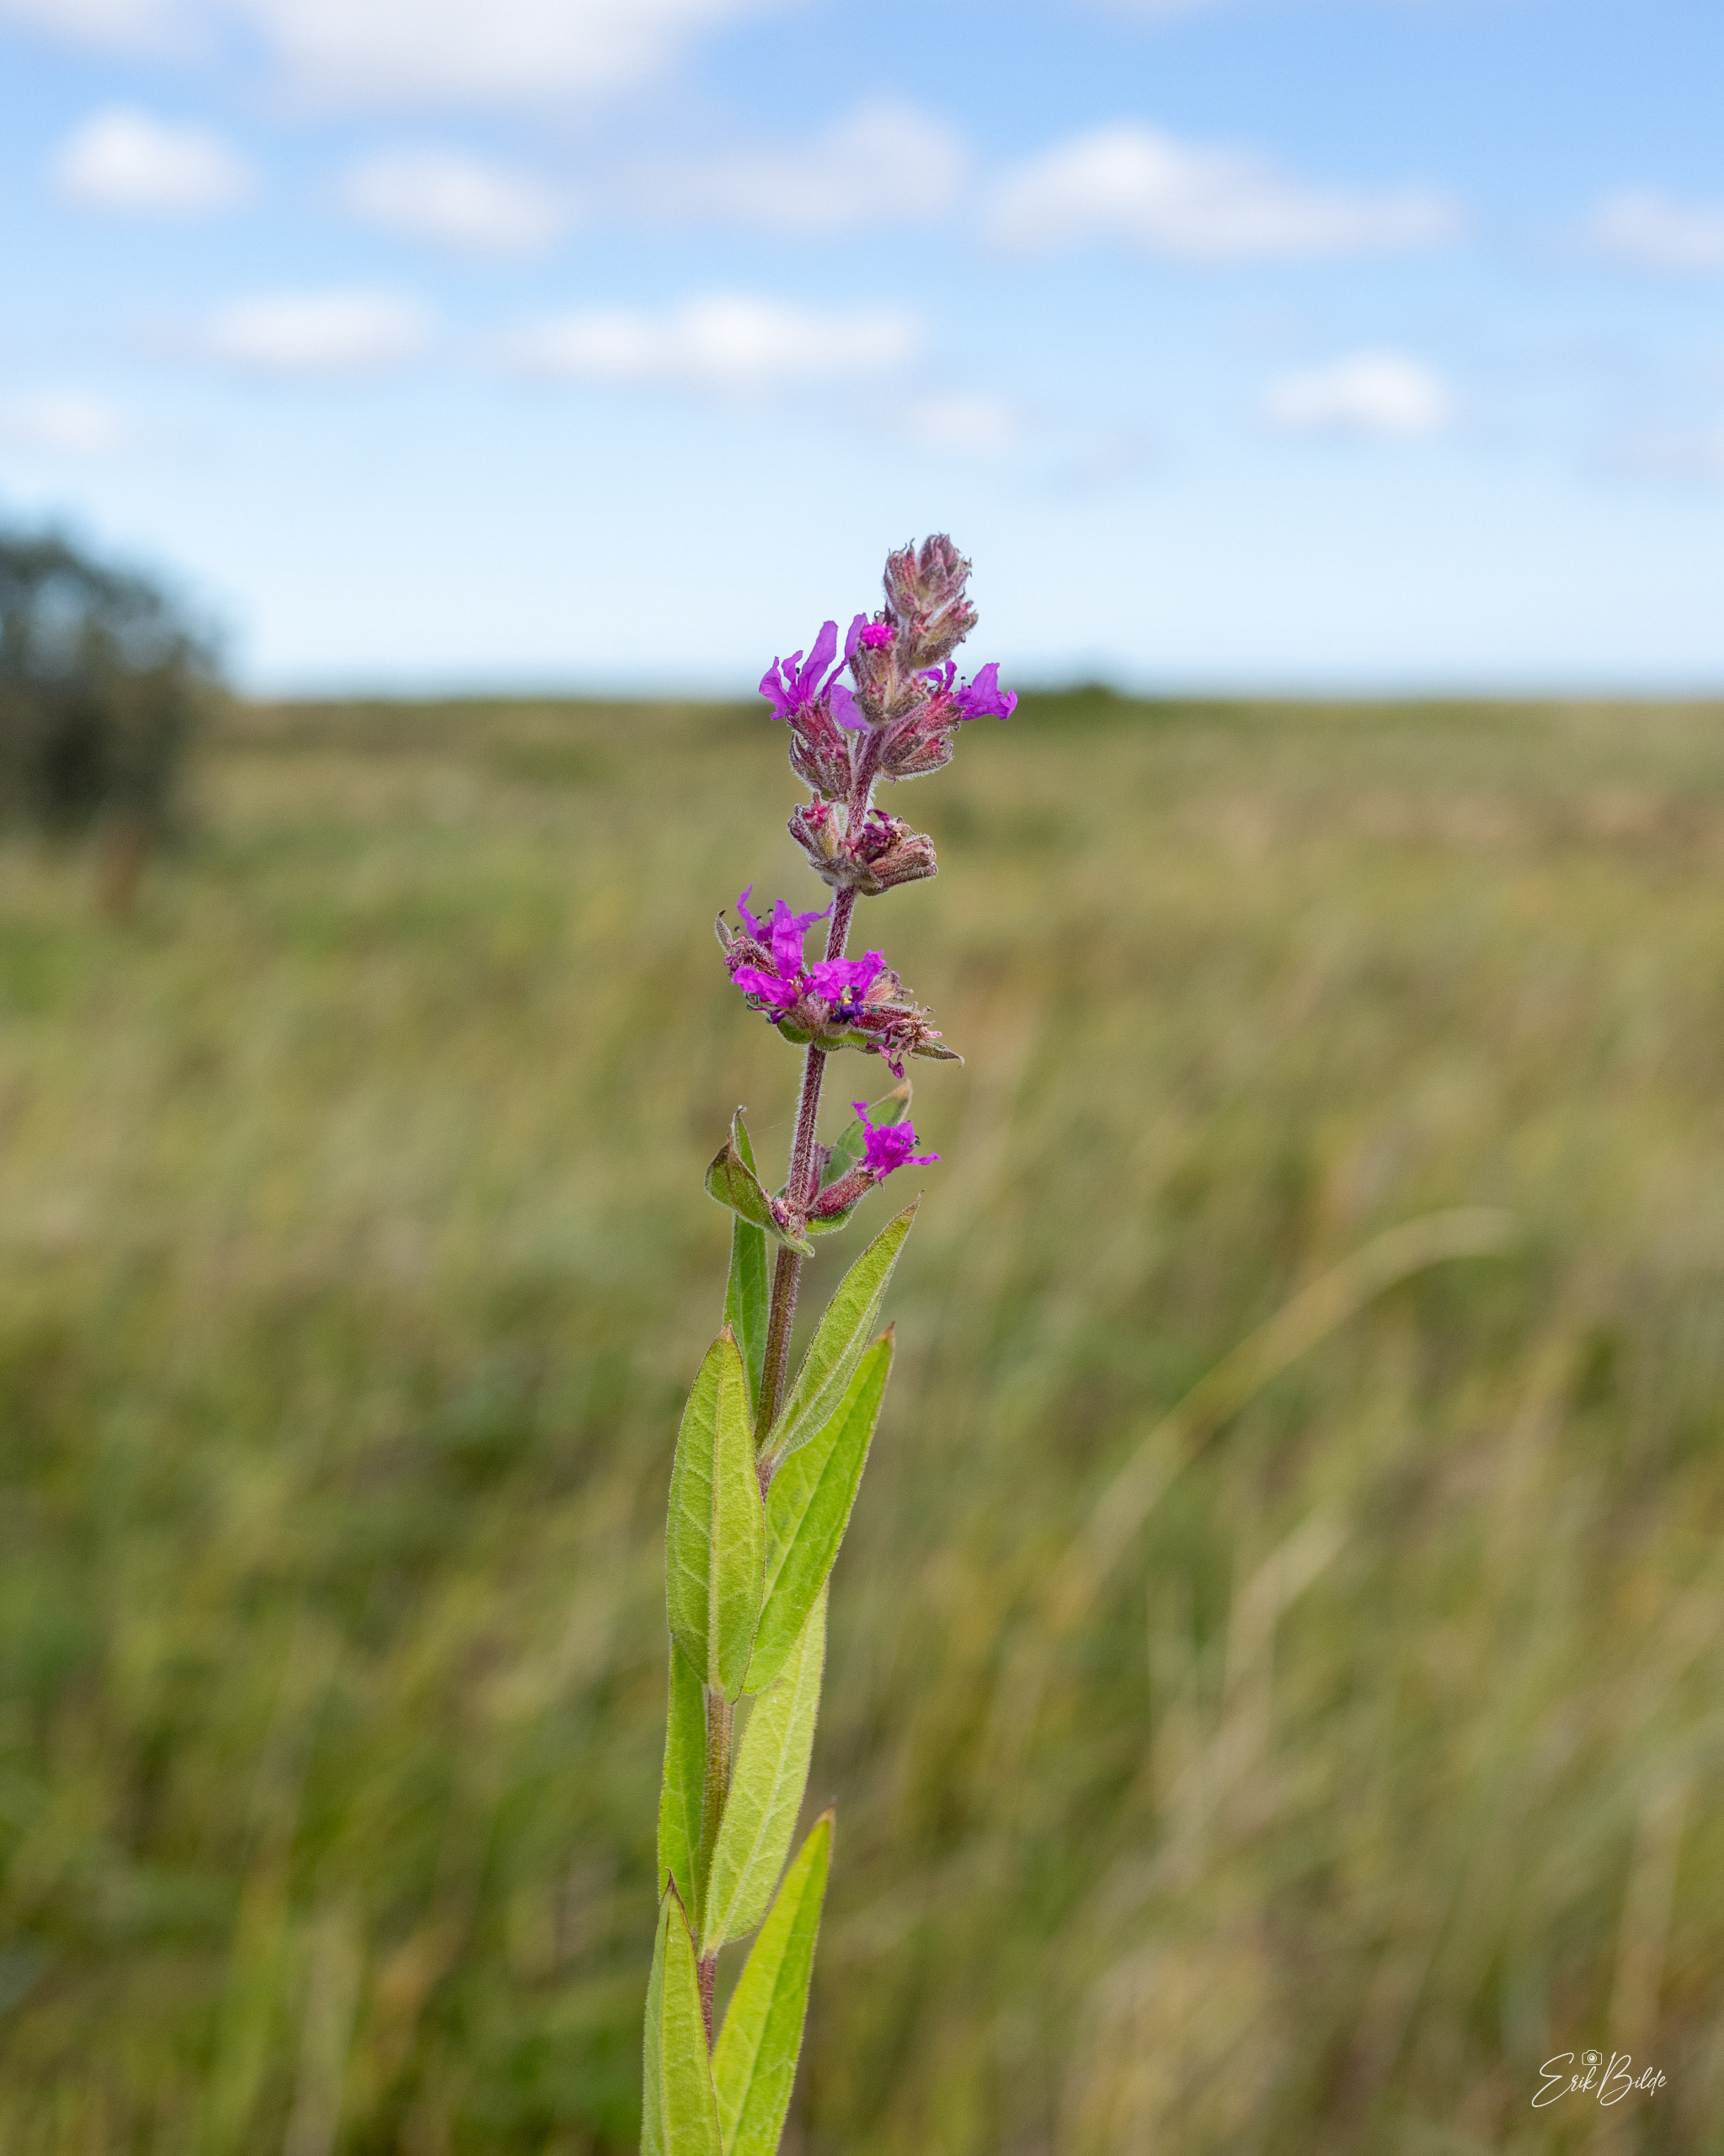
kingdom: Plantae
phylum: Tracheophyta
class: Magnoliopsida
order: Myrtales
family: Lythraceae
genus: Lythrum
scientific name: Lythrum salicaria
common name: Kattehale
